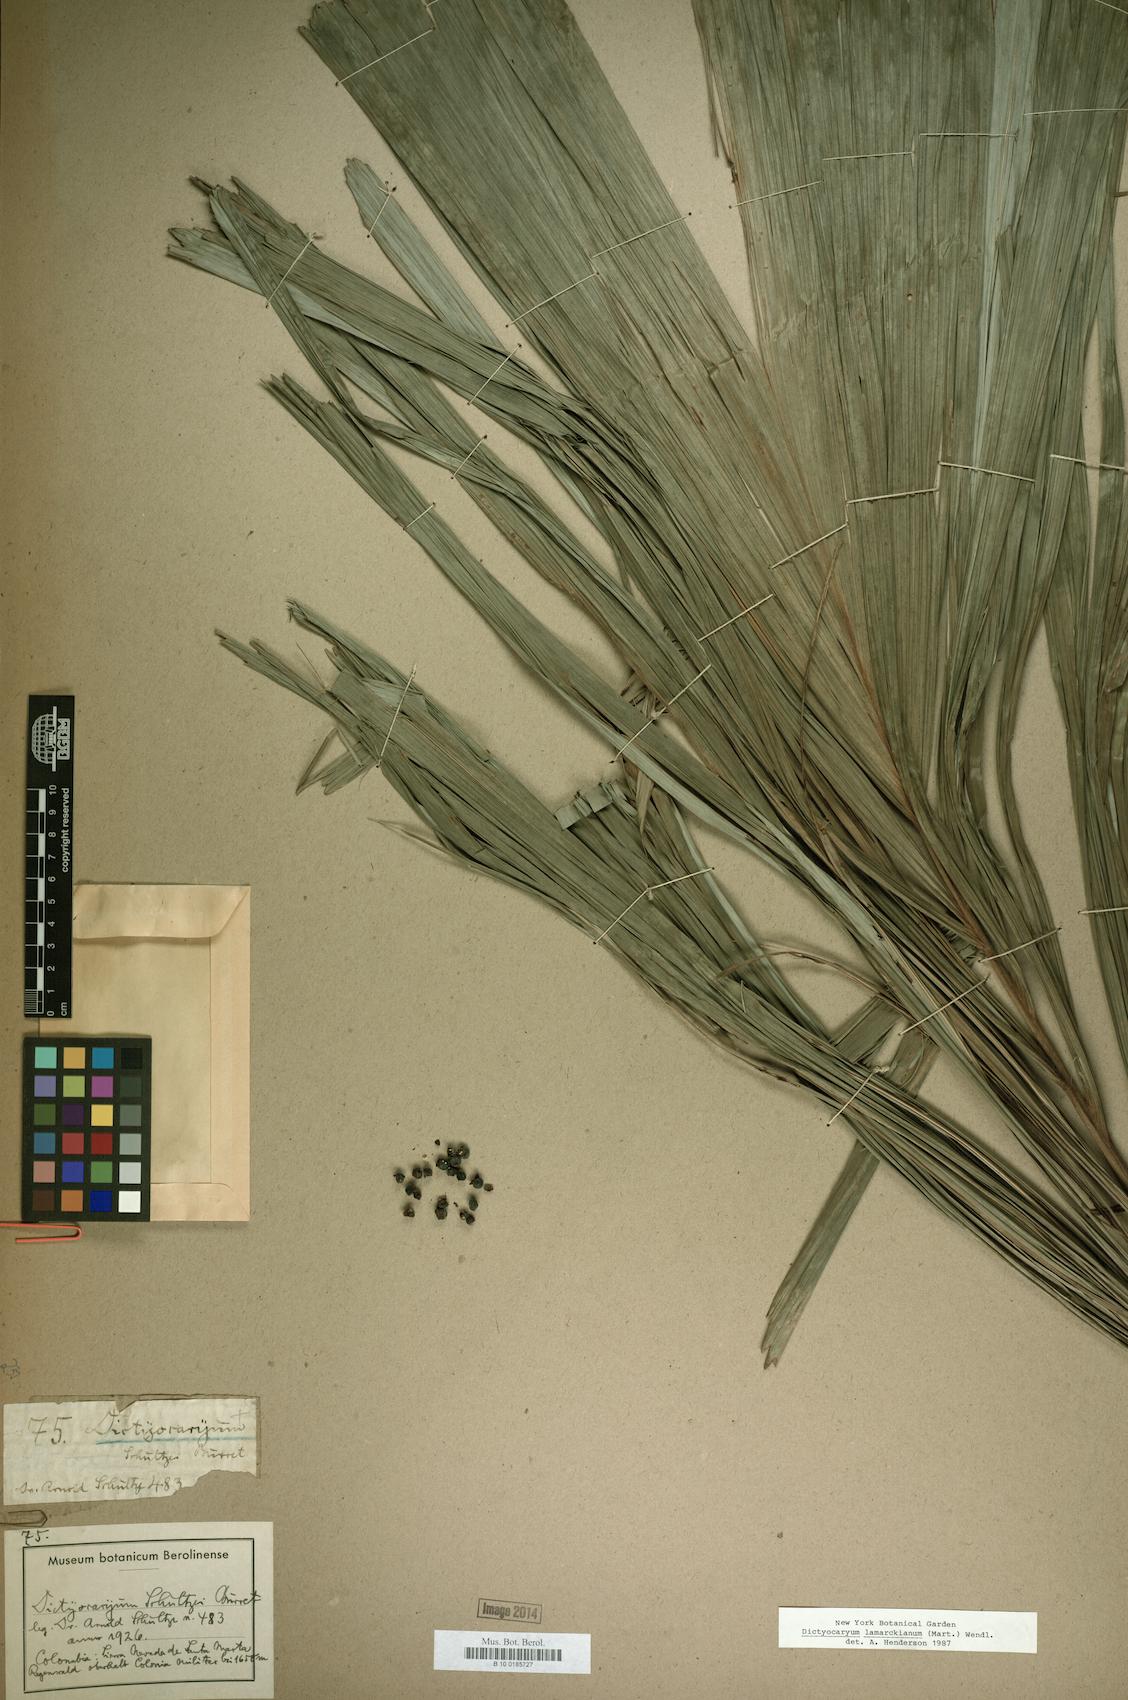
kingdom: Plantae
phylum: Tracheophyta
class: Liliopsida
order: Arecales
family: Arecaceae
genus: Dictyocaryum
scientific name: Dictyocaryum lamarckianum
